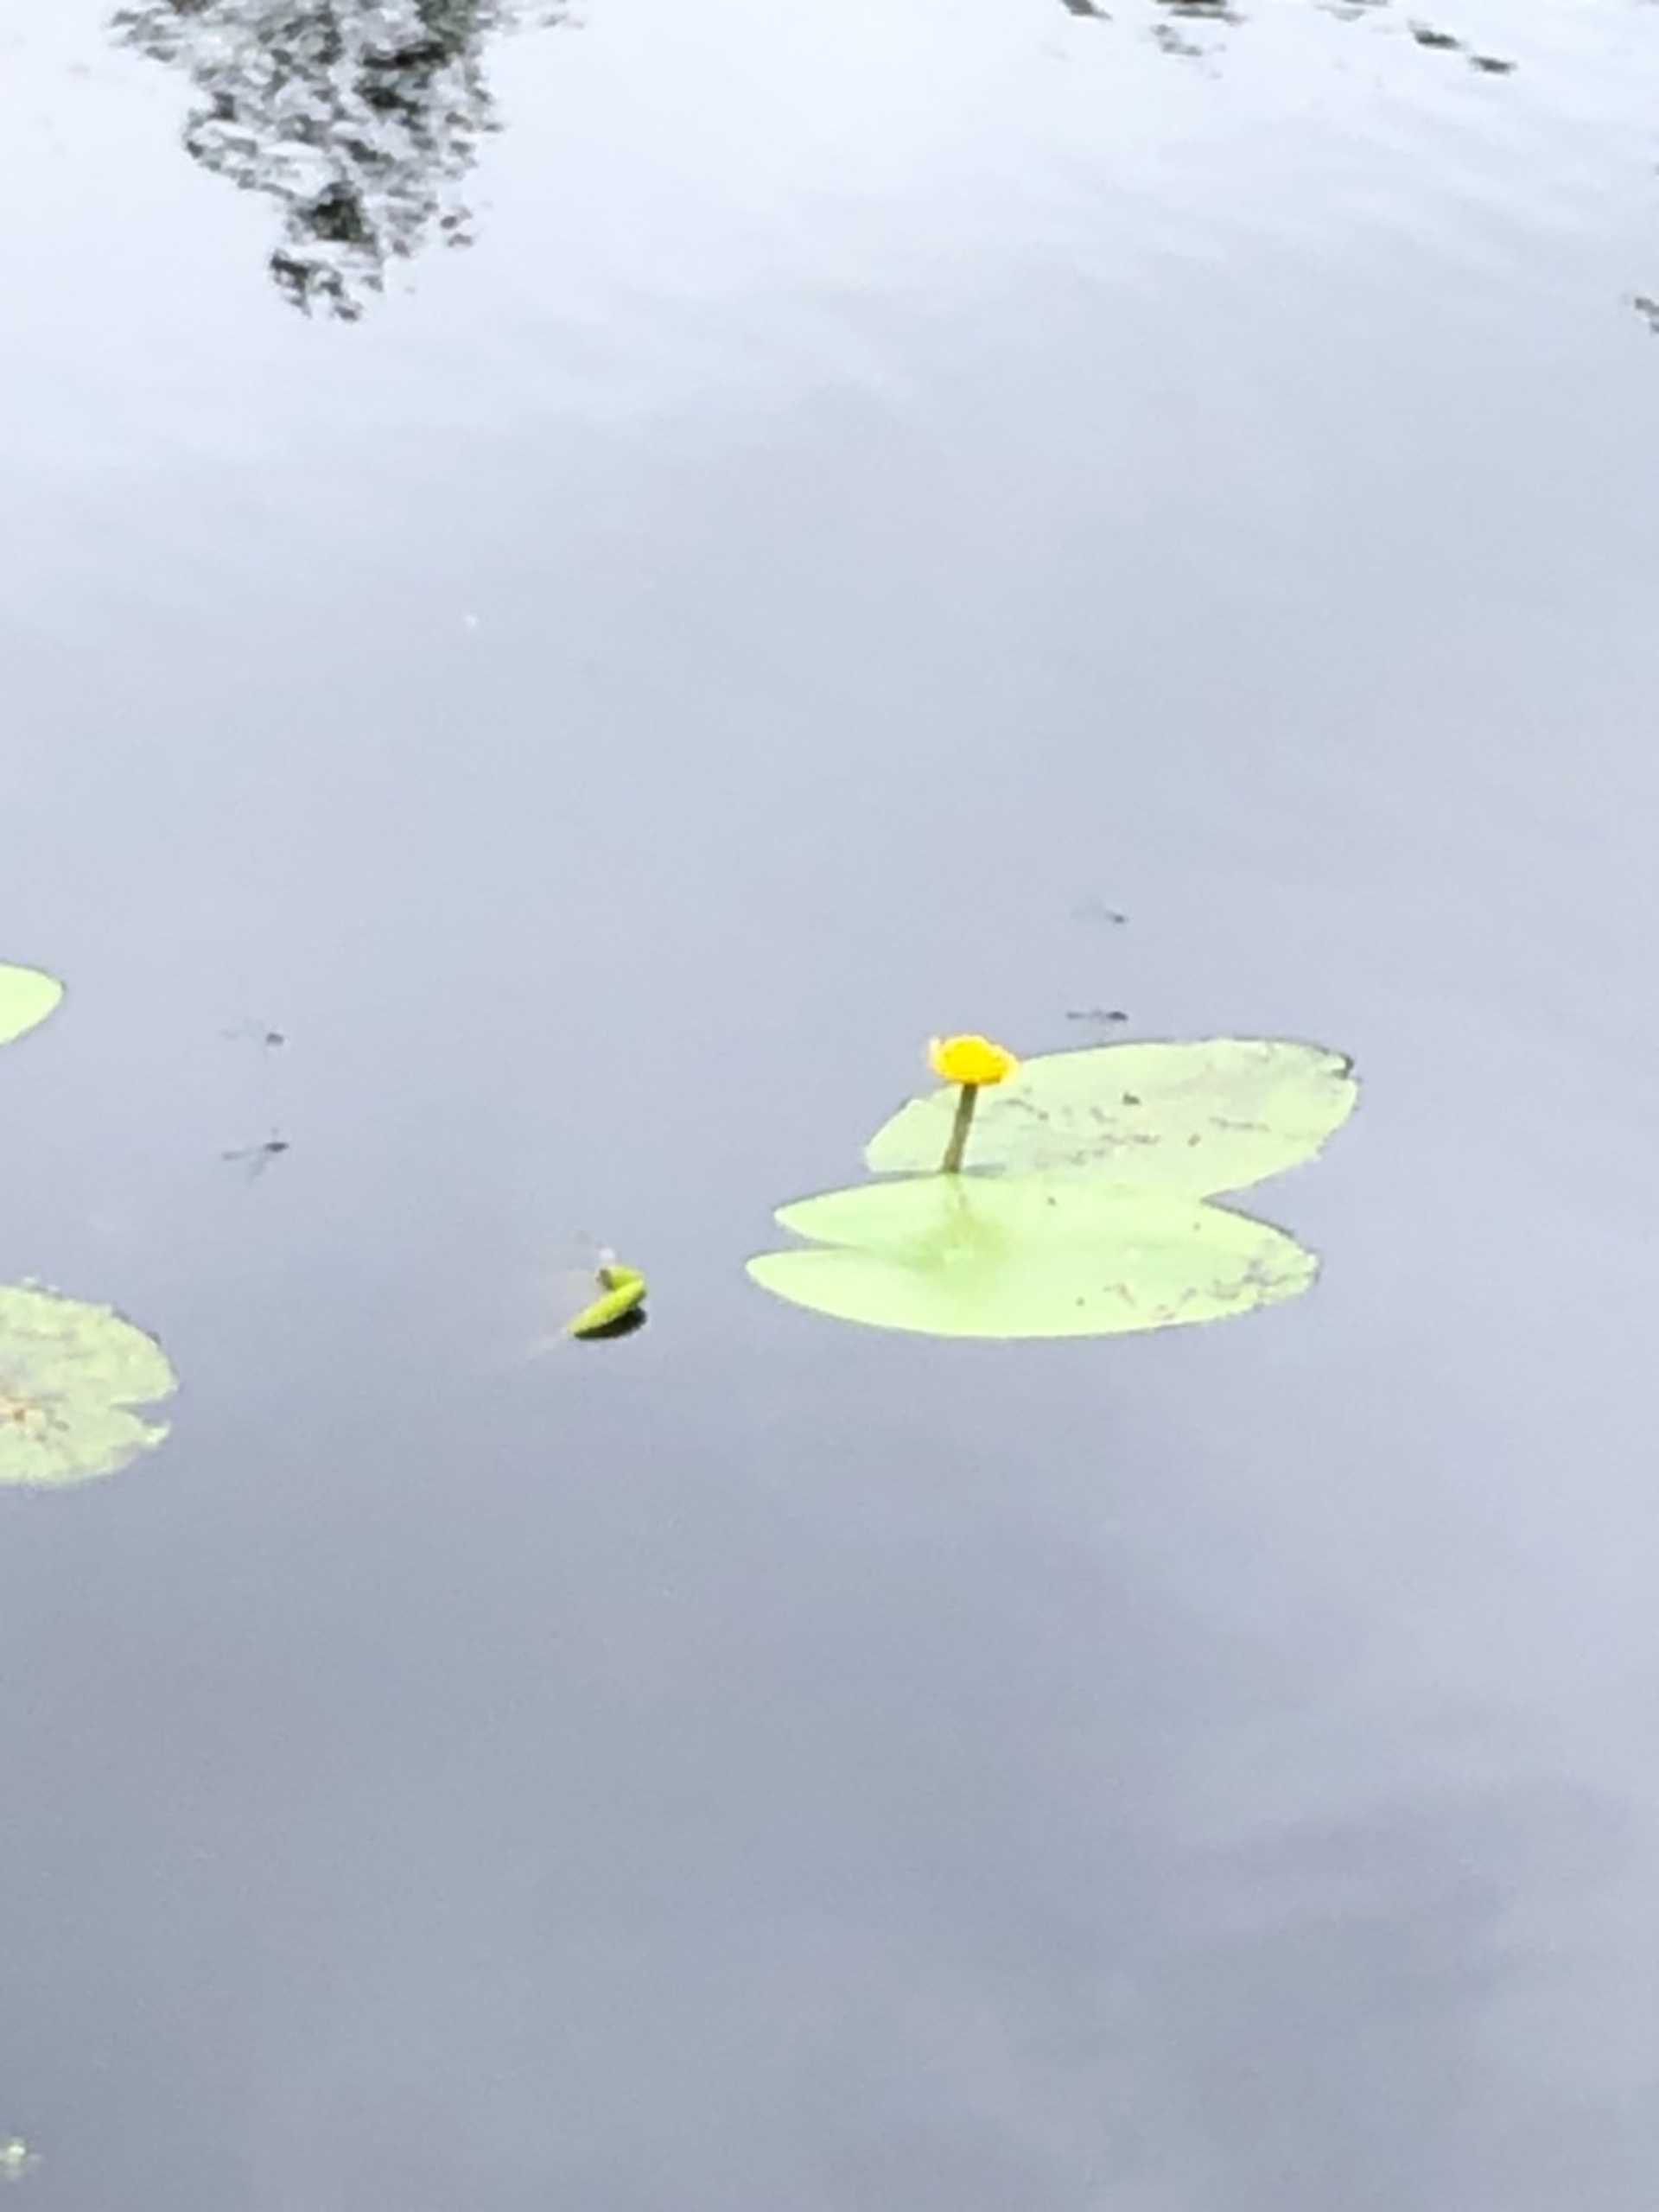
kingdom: Plantae
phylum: Tracheophyta
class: Magnoliopsida
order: Nymphaeales
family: Nymphaeaceae
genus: Nuphar
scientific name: Nuphar lutea
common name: Gul åkande
